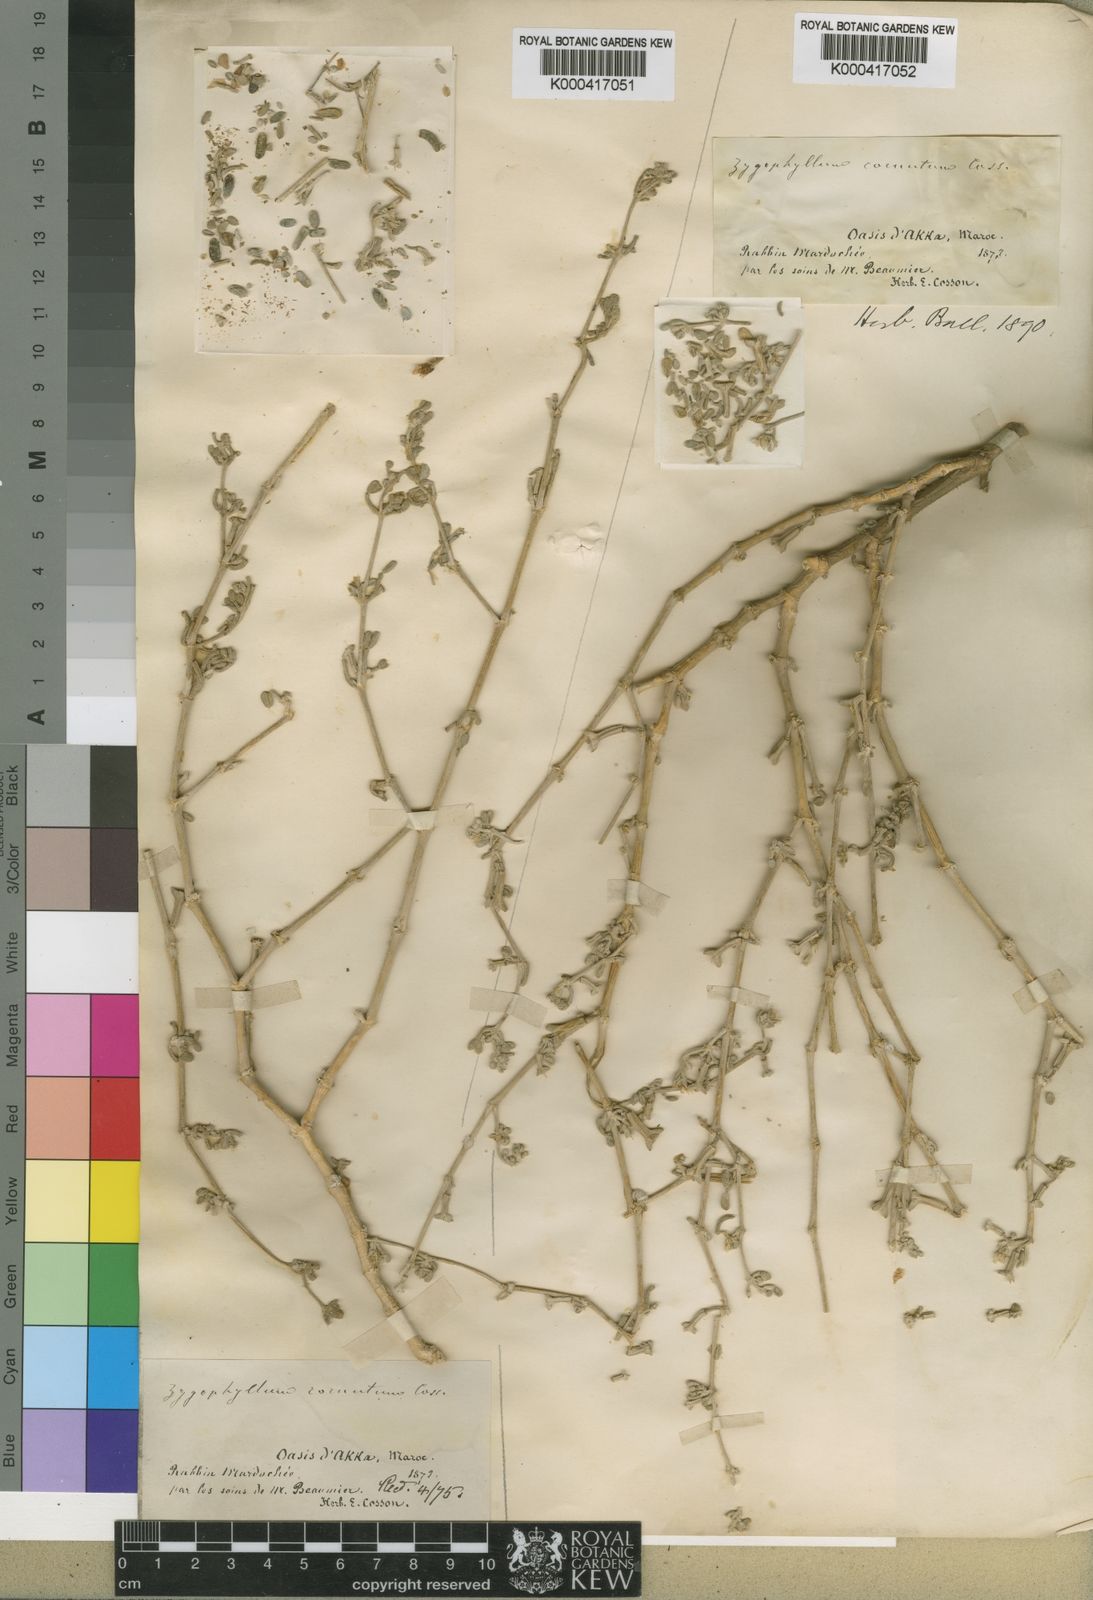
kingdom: Plantae
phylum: Tracheophyta
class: Magnoliopsida
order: Zygophyllales
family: Zygophyllaceae
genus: Tetraena
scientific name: Tetraena cornuta
